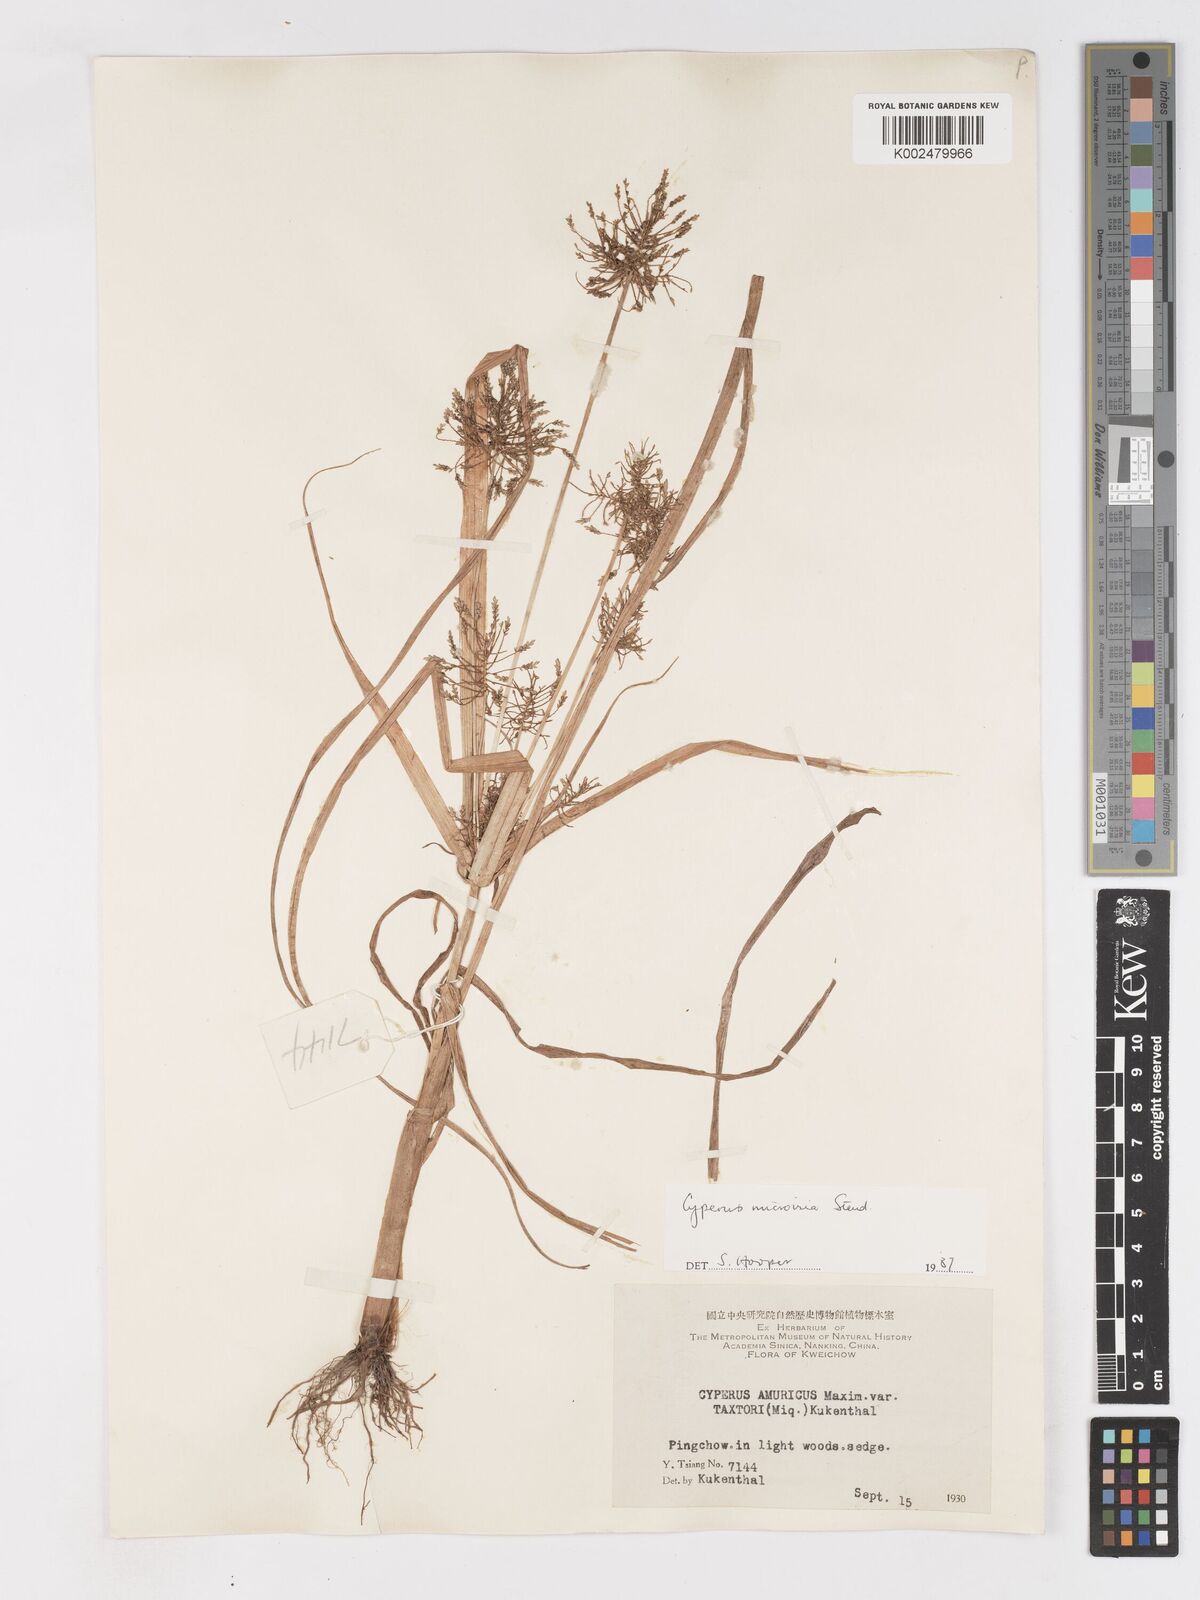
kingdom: Plantae
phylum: Tracheophyta
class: Liliopsida
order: Poales
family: Cyperaceae
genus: Cyperus
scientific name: Cyperus microiria
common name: Asian flatsedge
